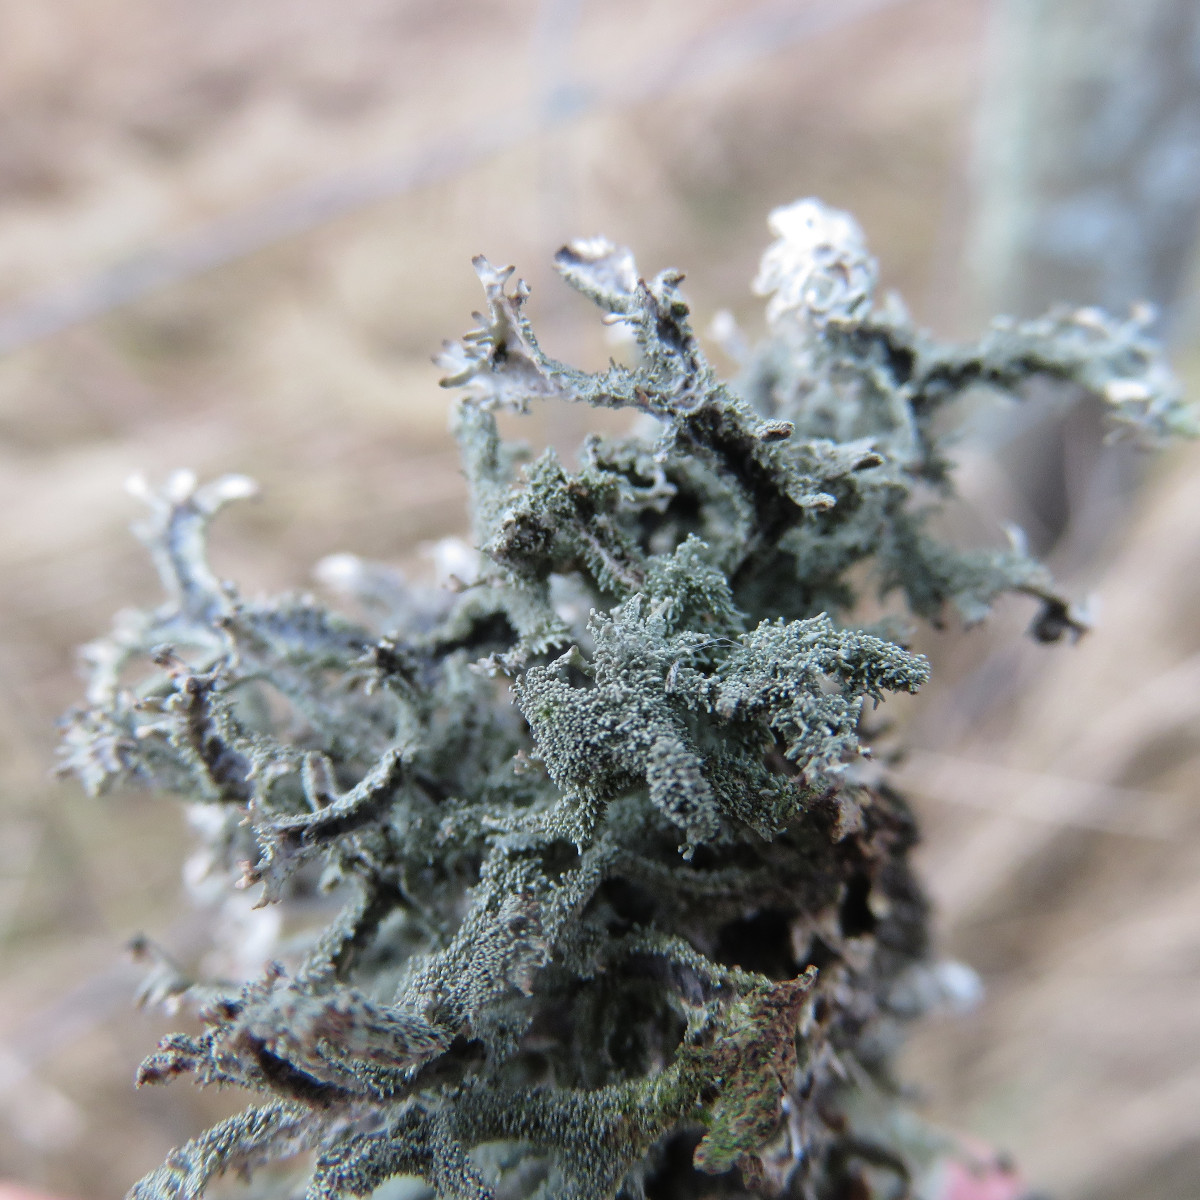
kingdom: Fungi
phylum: Ascomycota
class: Lecanoromycetes
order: Lecanorales
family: Parmeliaceae
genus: Pseudevernia
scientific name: Pseudevernia furfuracea
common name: grå fyrrelav
